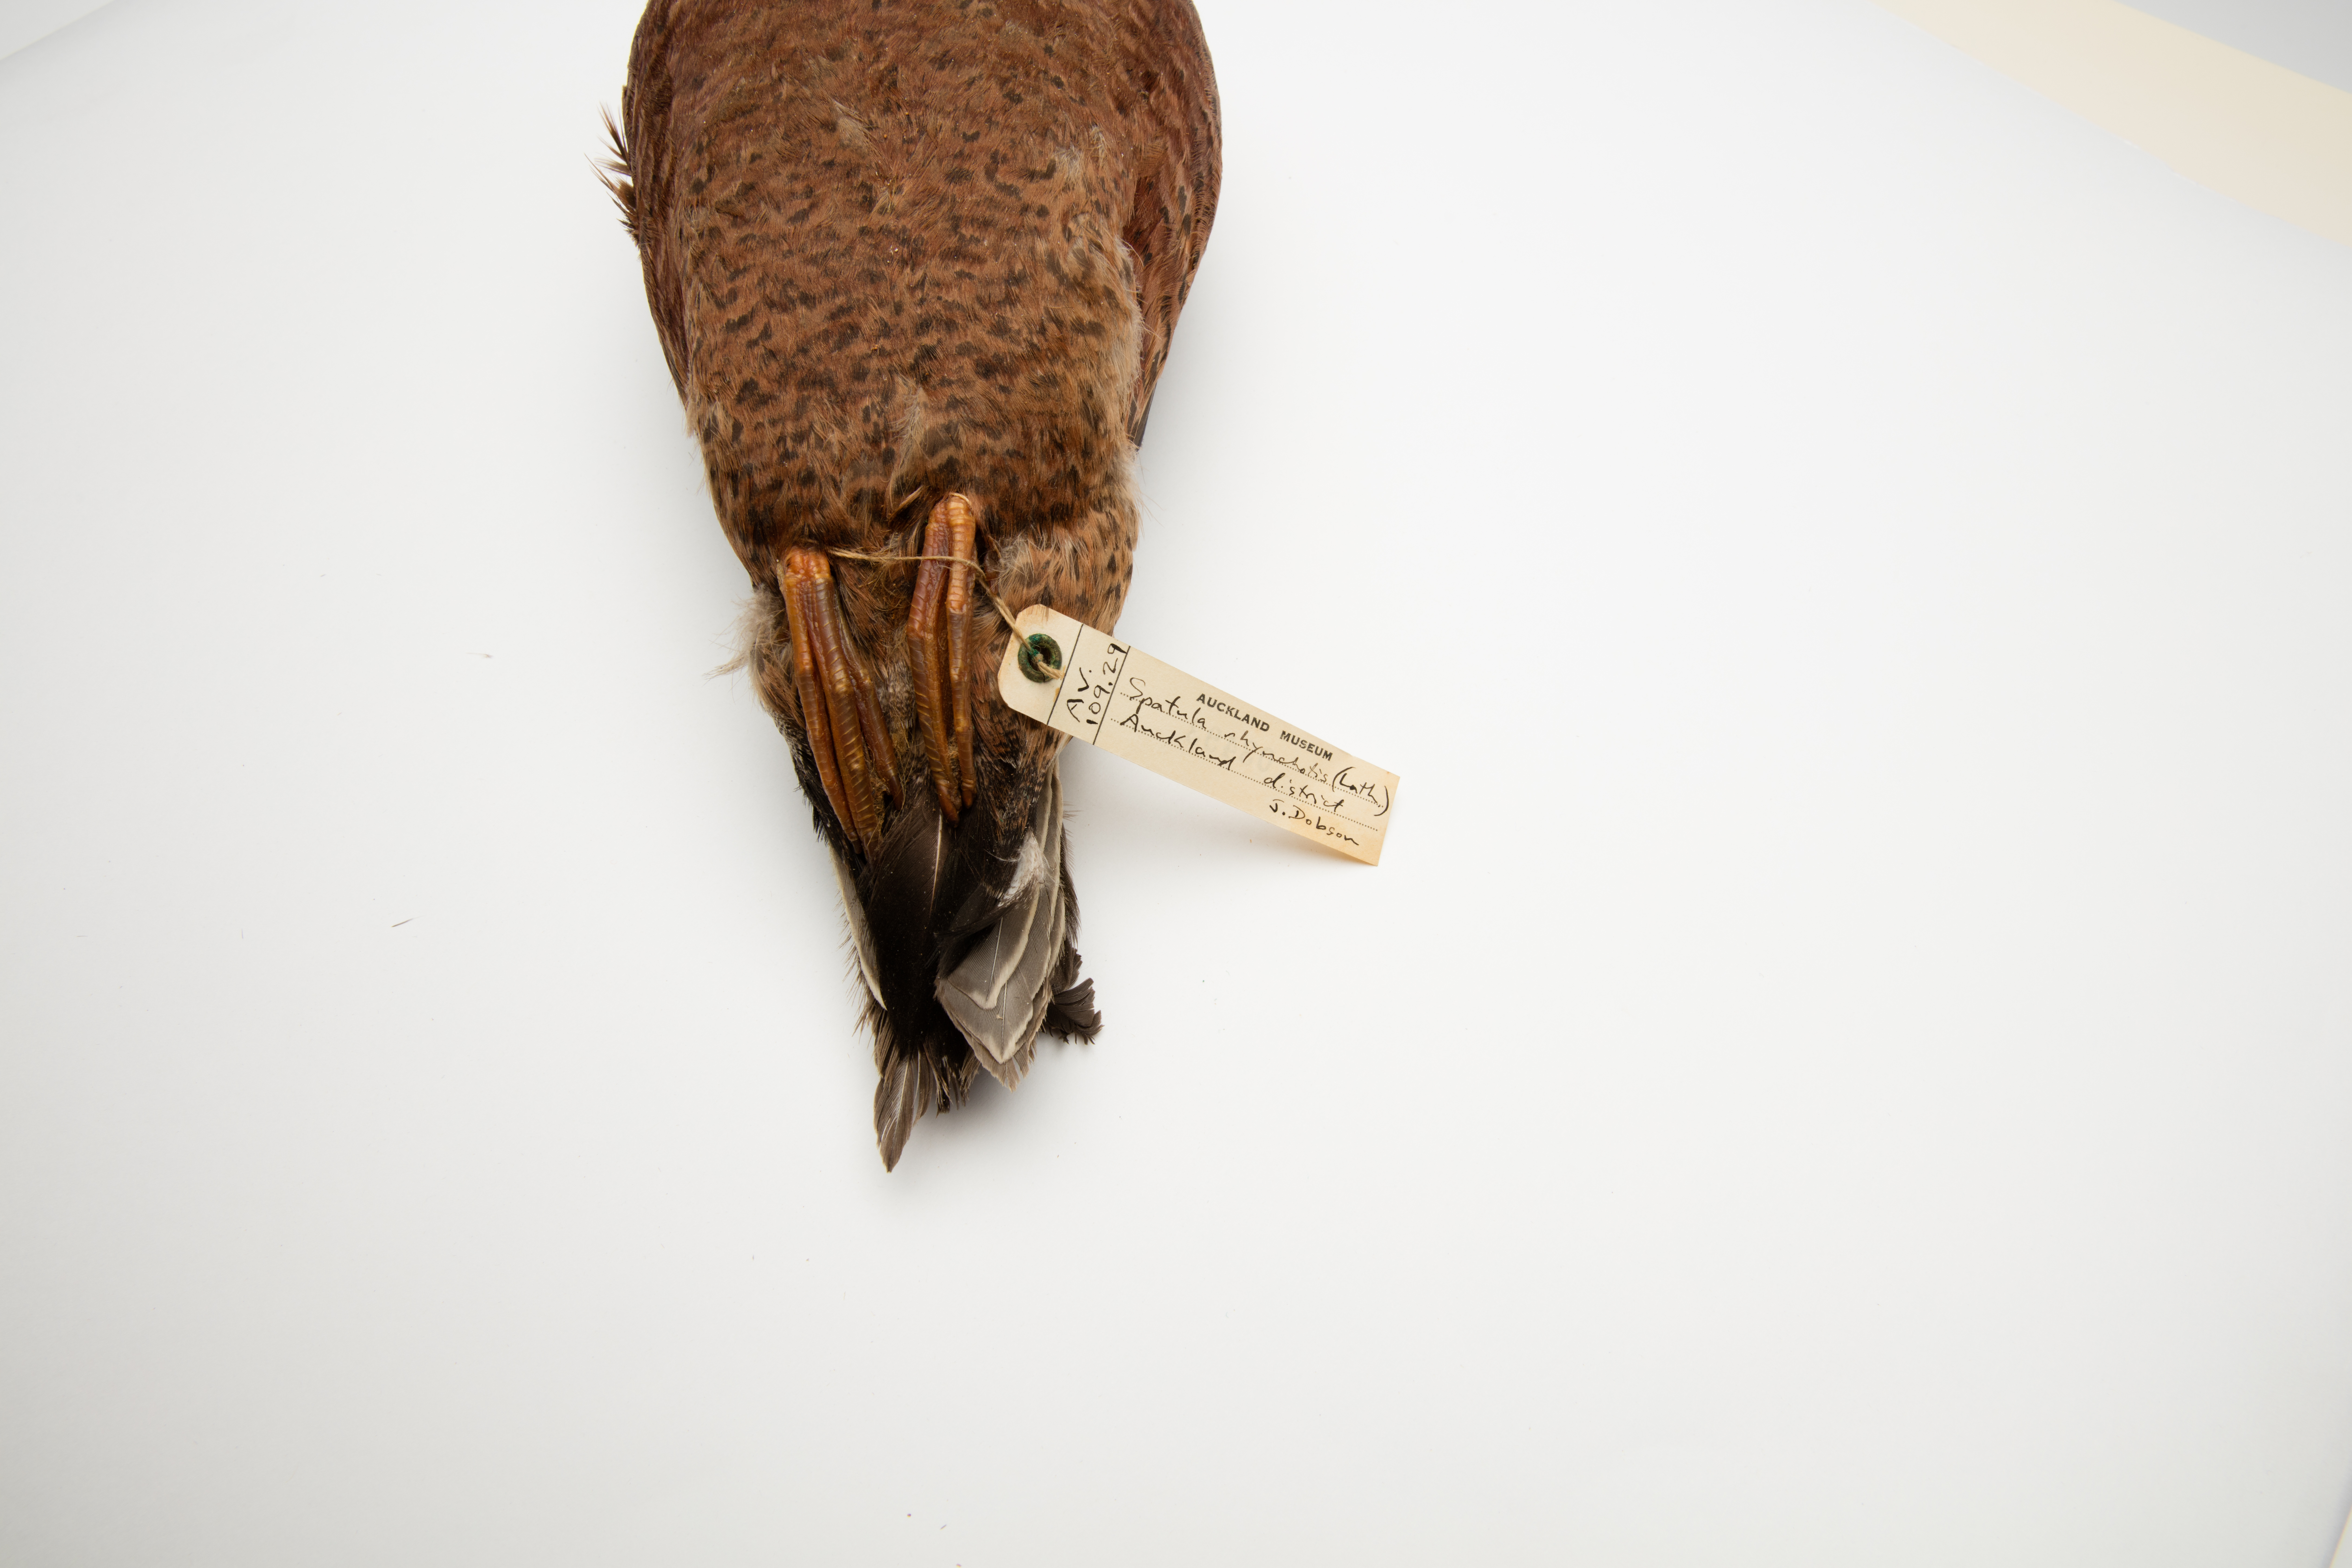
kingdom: Animalia
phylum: Chordata
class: Aves
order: Anseriformes
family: Anatidae
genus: Spatula
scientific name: Spatula rhynchotis
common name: Australian shoveler
